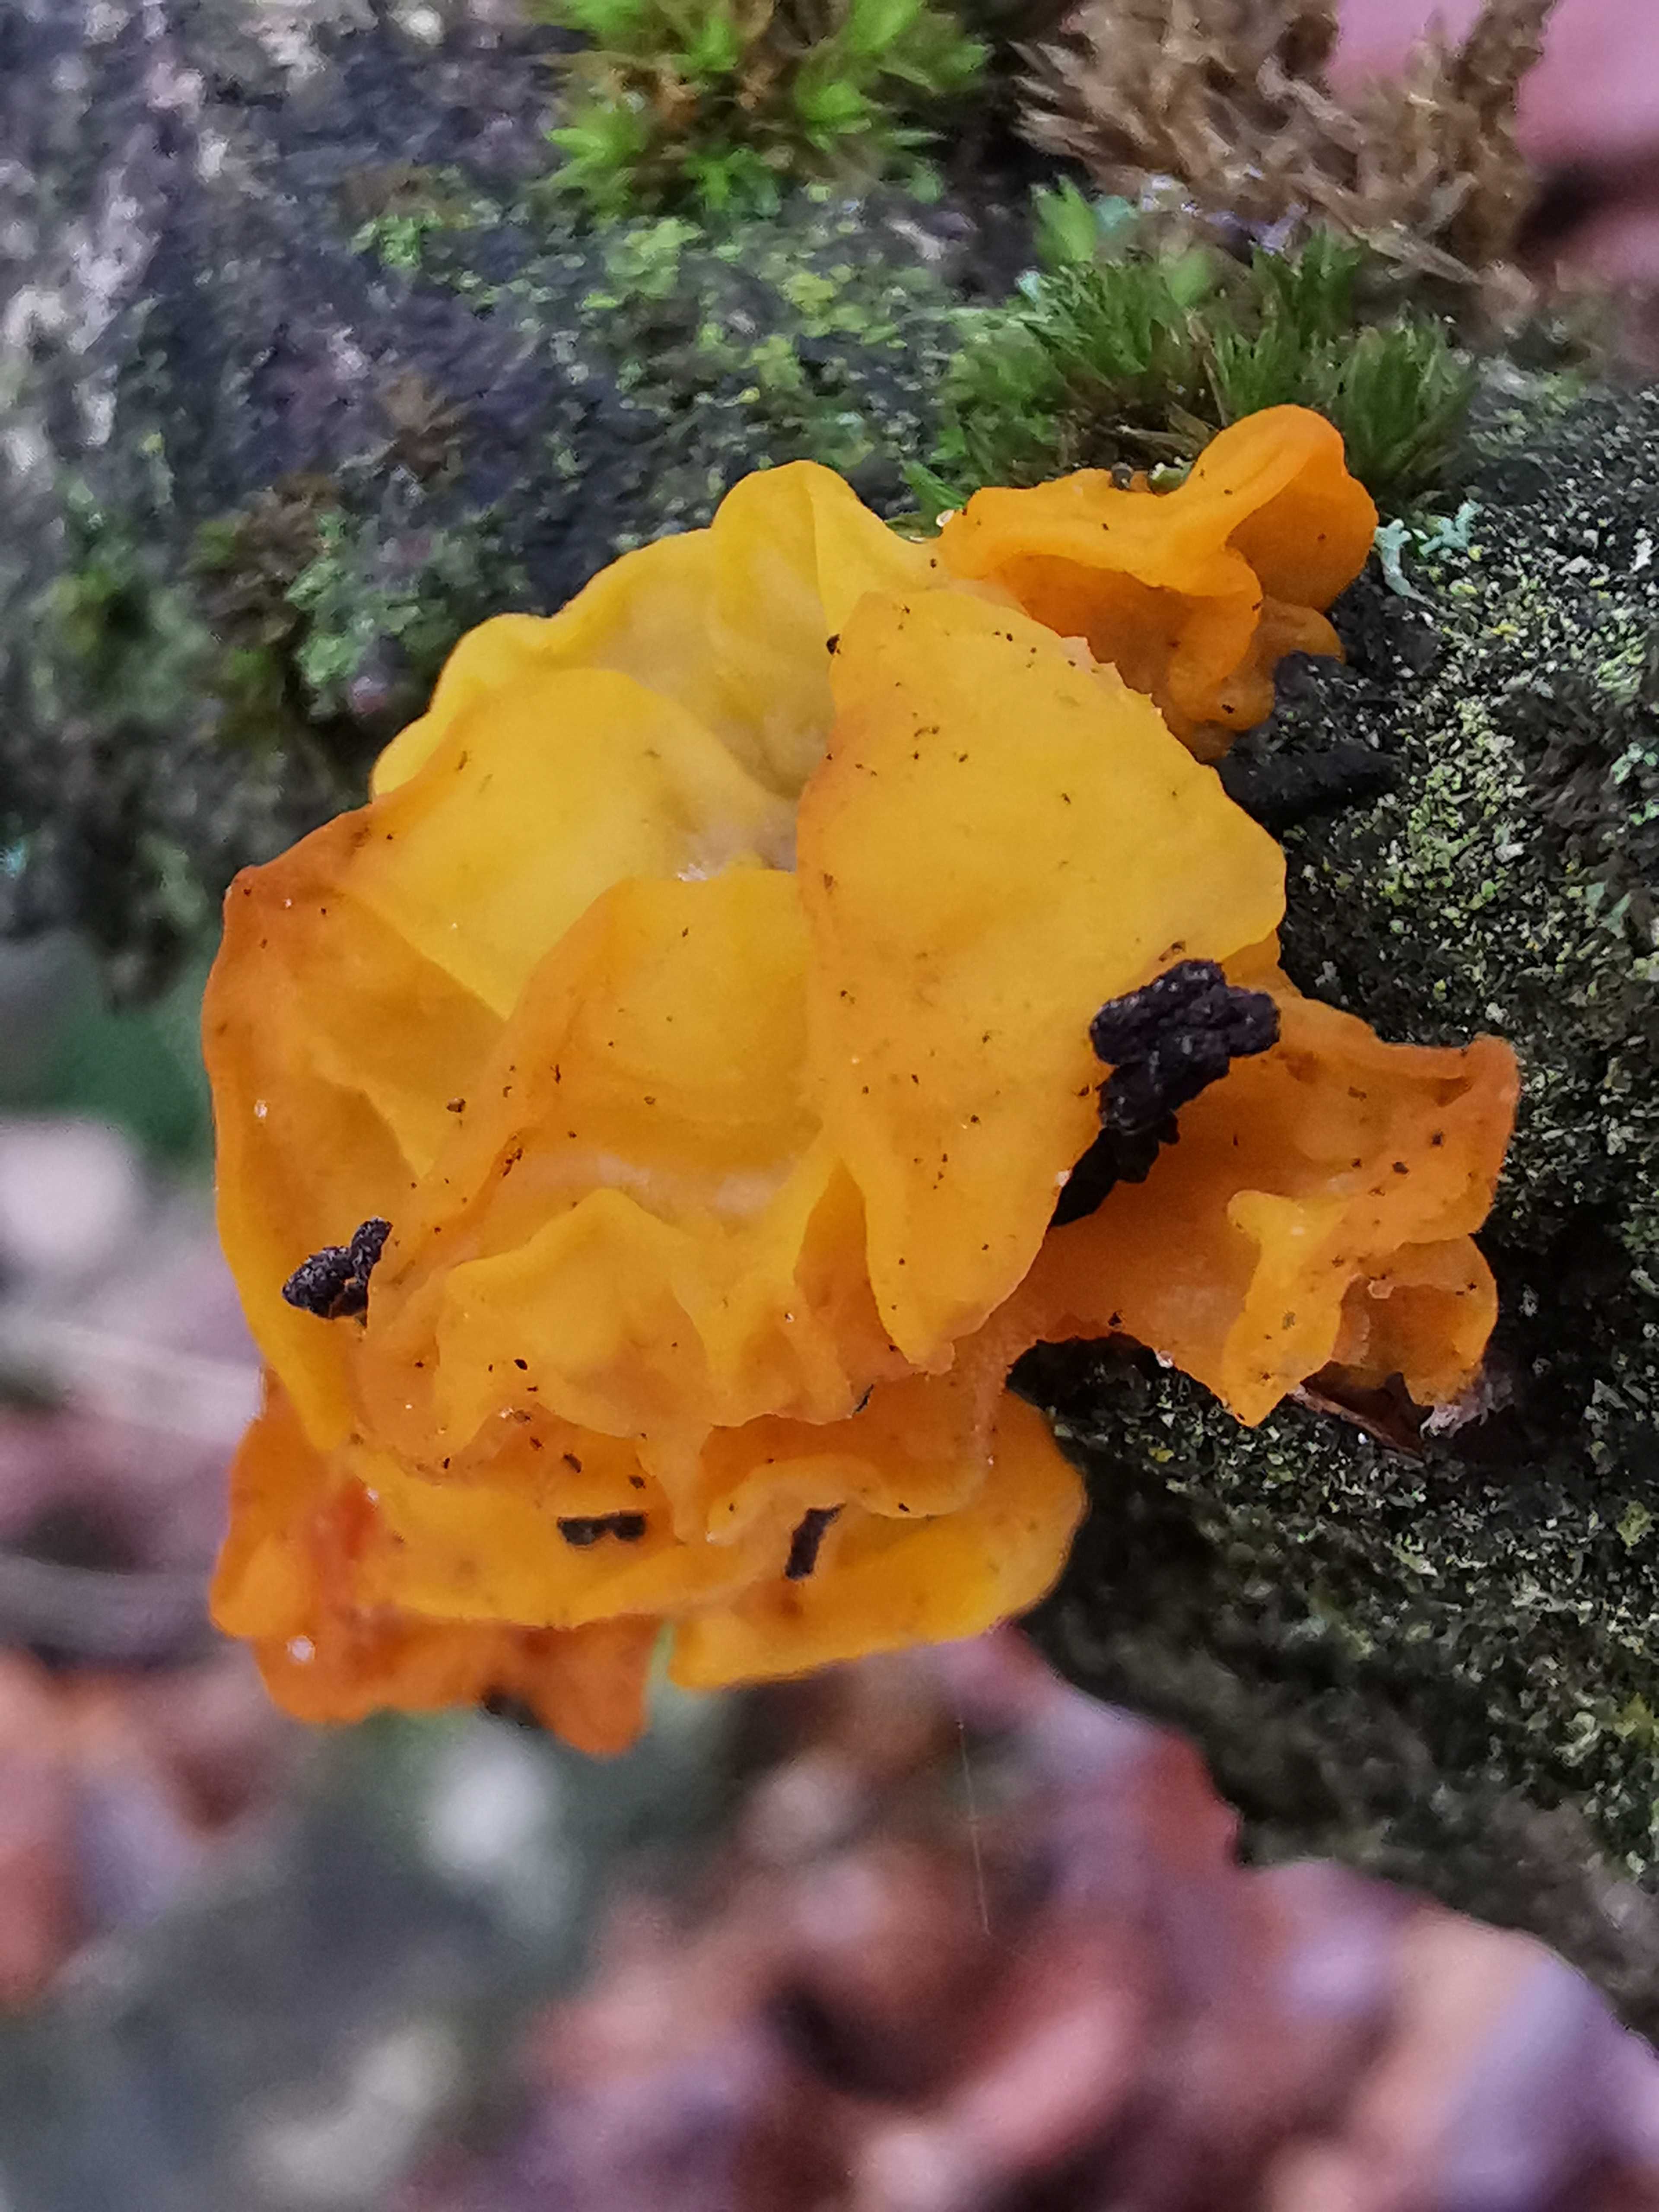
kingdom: Fungi
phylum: Basidiomycota
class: Tremellomycetes
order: Tremellales
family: Tremellaceae
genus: Tremella
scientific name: Tremella mesenterica
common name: gul bævresvamp
